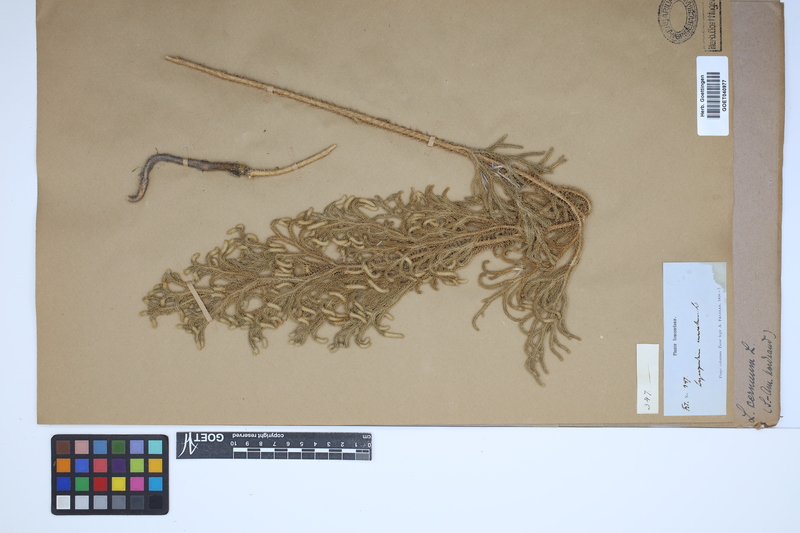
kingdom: Plantae
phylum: Tracheophyta
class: Lycopodiopsida
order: Lycopodiales
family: Lycopodiaceae
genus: Palhinhaea
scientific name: Palhinhaea cernua
